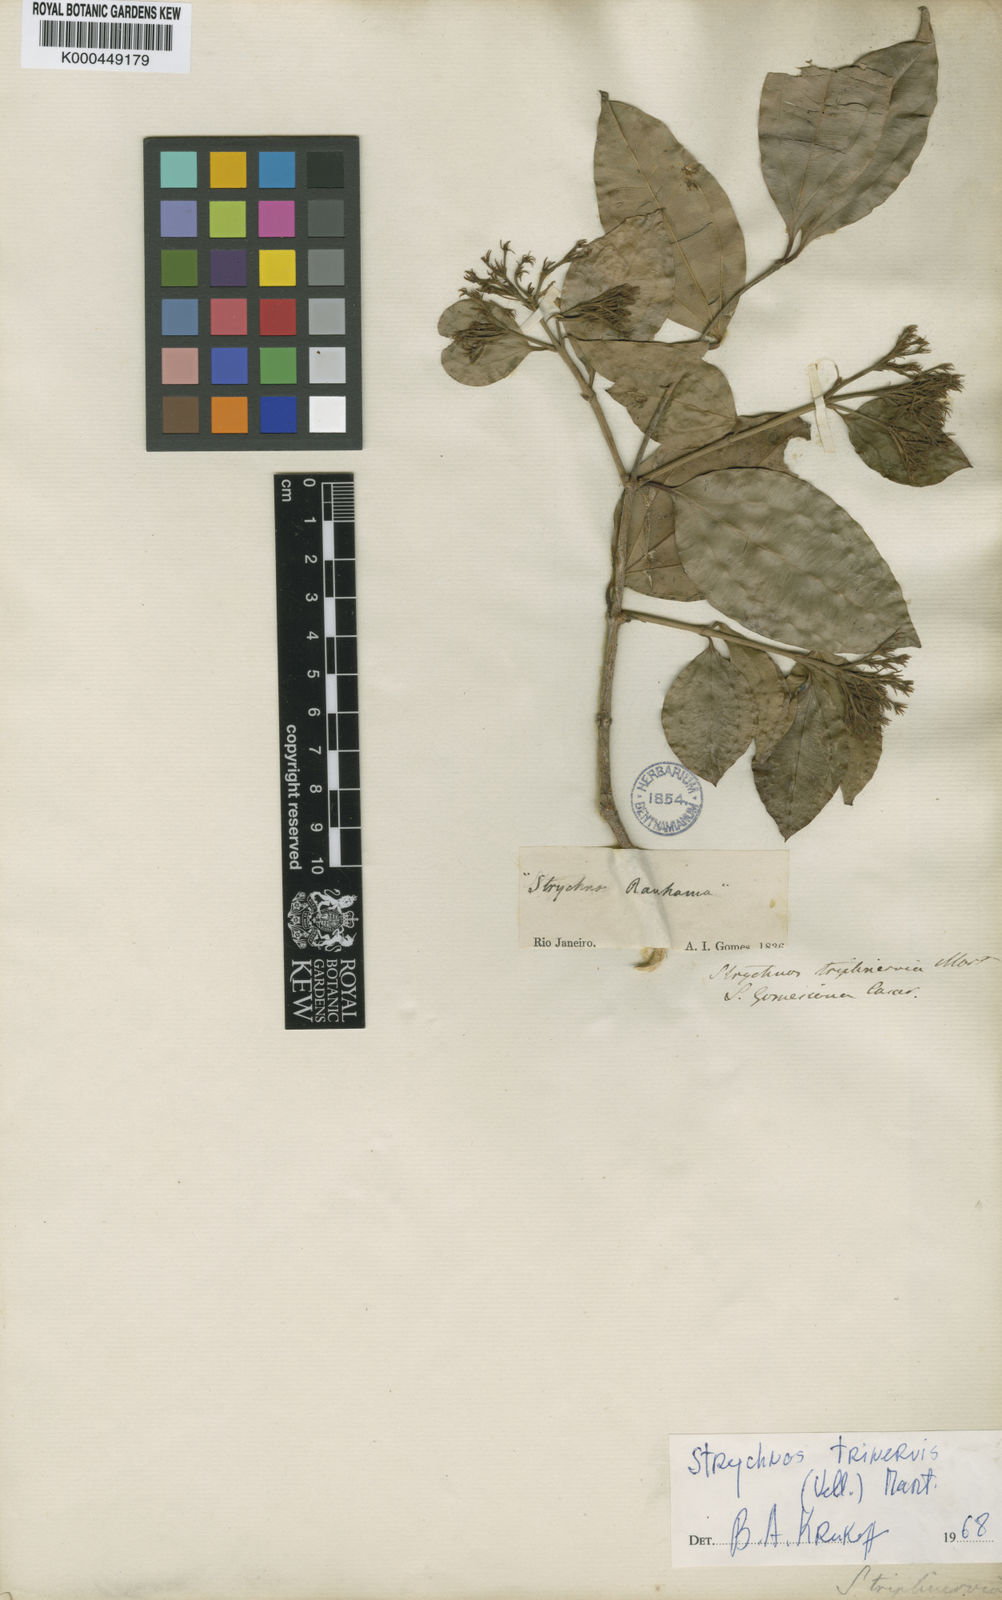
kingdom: Plantae
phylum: Tracheophyta
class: Magnoliopsida
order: Gentianales
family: Loganiaceae
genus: Strychnos
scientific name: Strychnos
